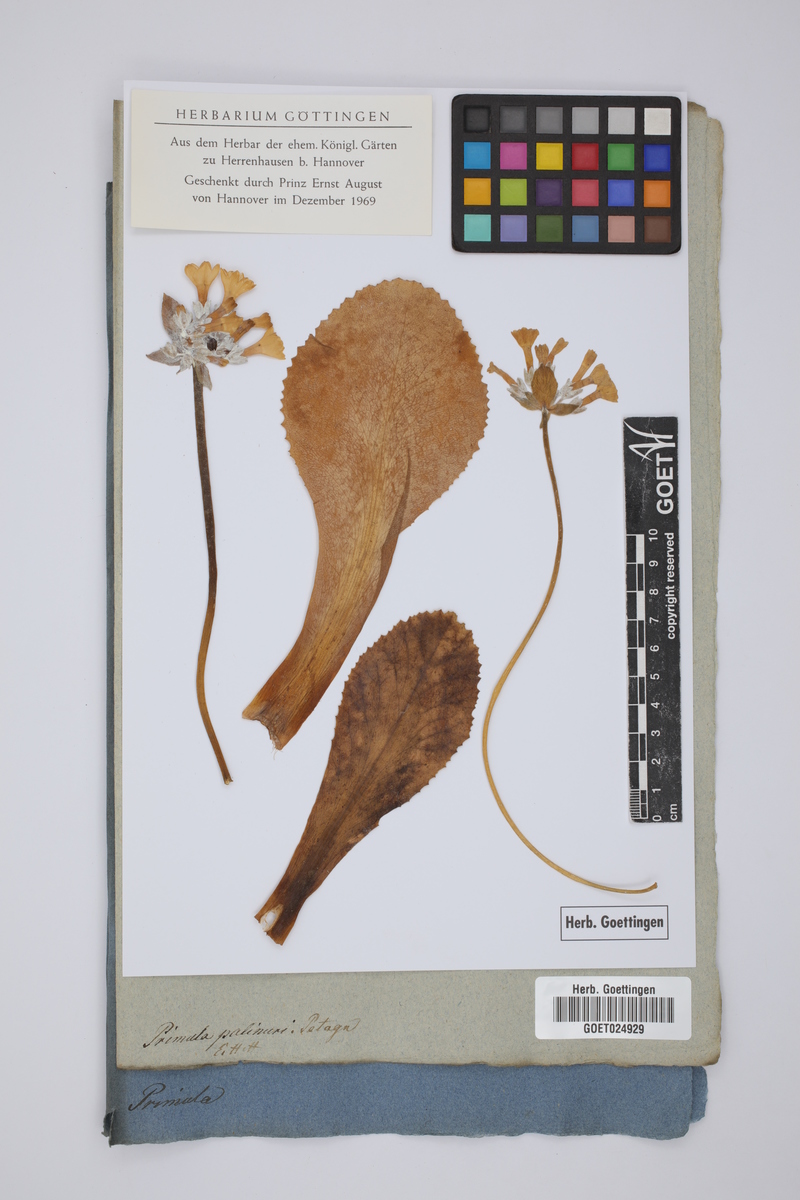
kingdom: Plantae
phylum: Tracheophyta
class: Magnoliopsida
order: Ericales
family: Primulaceae
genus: Primula
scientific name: Primula palinuri
